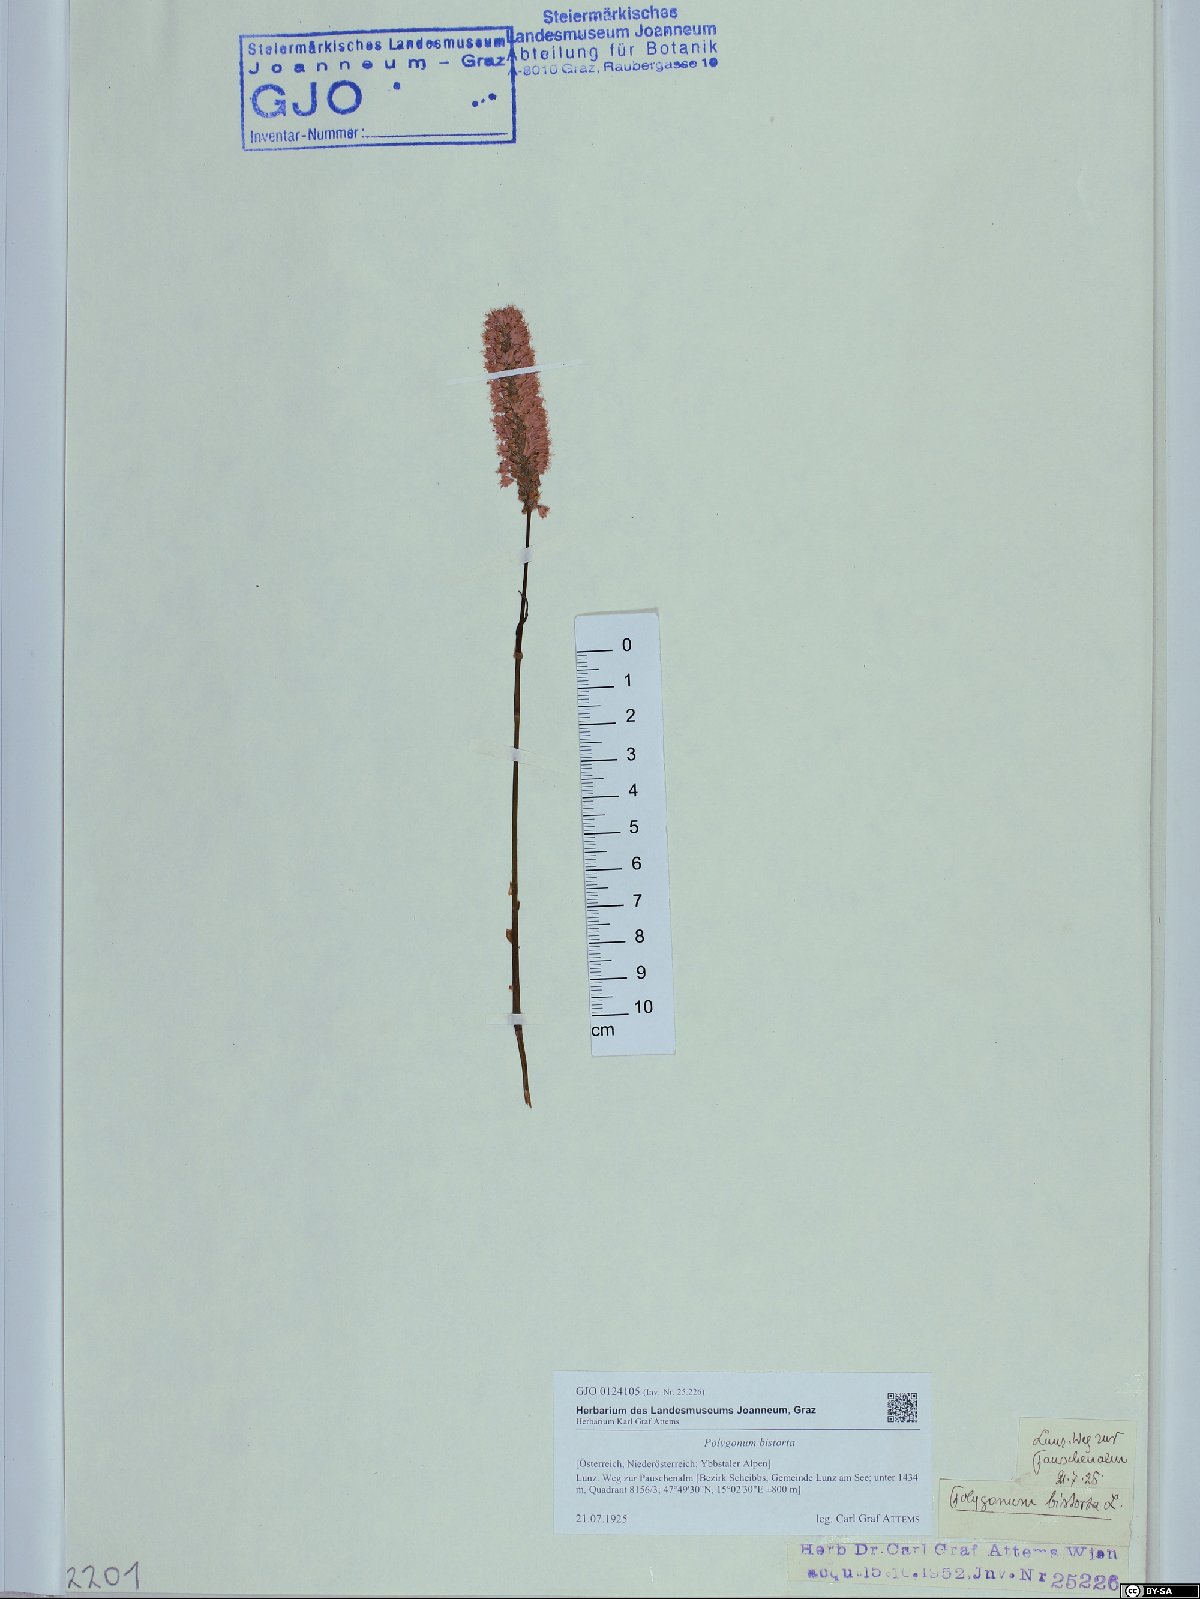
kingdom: Plantae
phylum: Tracheophyta
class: Magnoliopsida
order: Caryophyllales
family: Polygonaceae
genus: Bistorta
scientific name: Bistorta officinalis
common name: Common bistort
